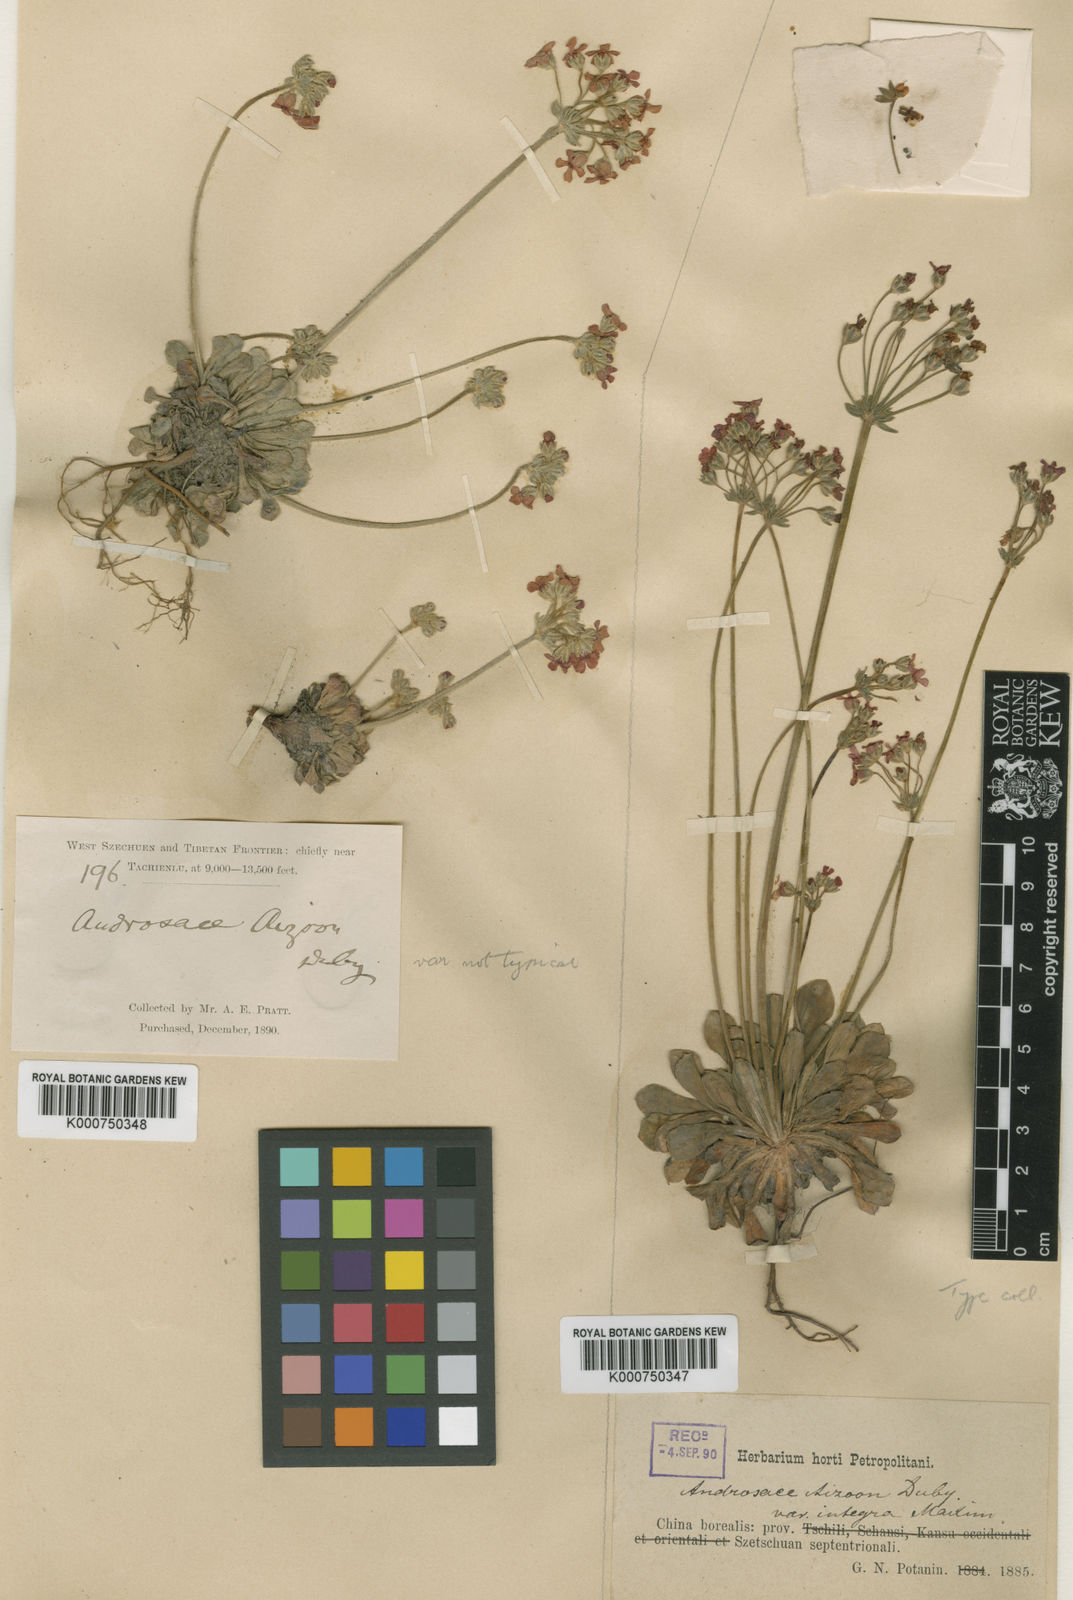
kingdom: Plantae
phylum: Tracheophyta
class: Magnoliopsida
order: Ericales
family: Primulaceae
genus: Androsace
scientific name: Androsace integra
